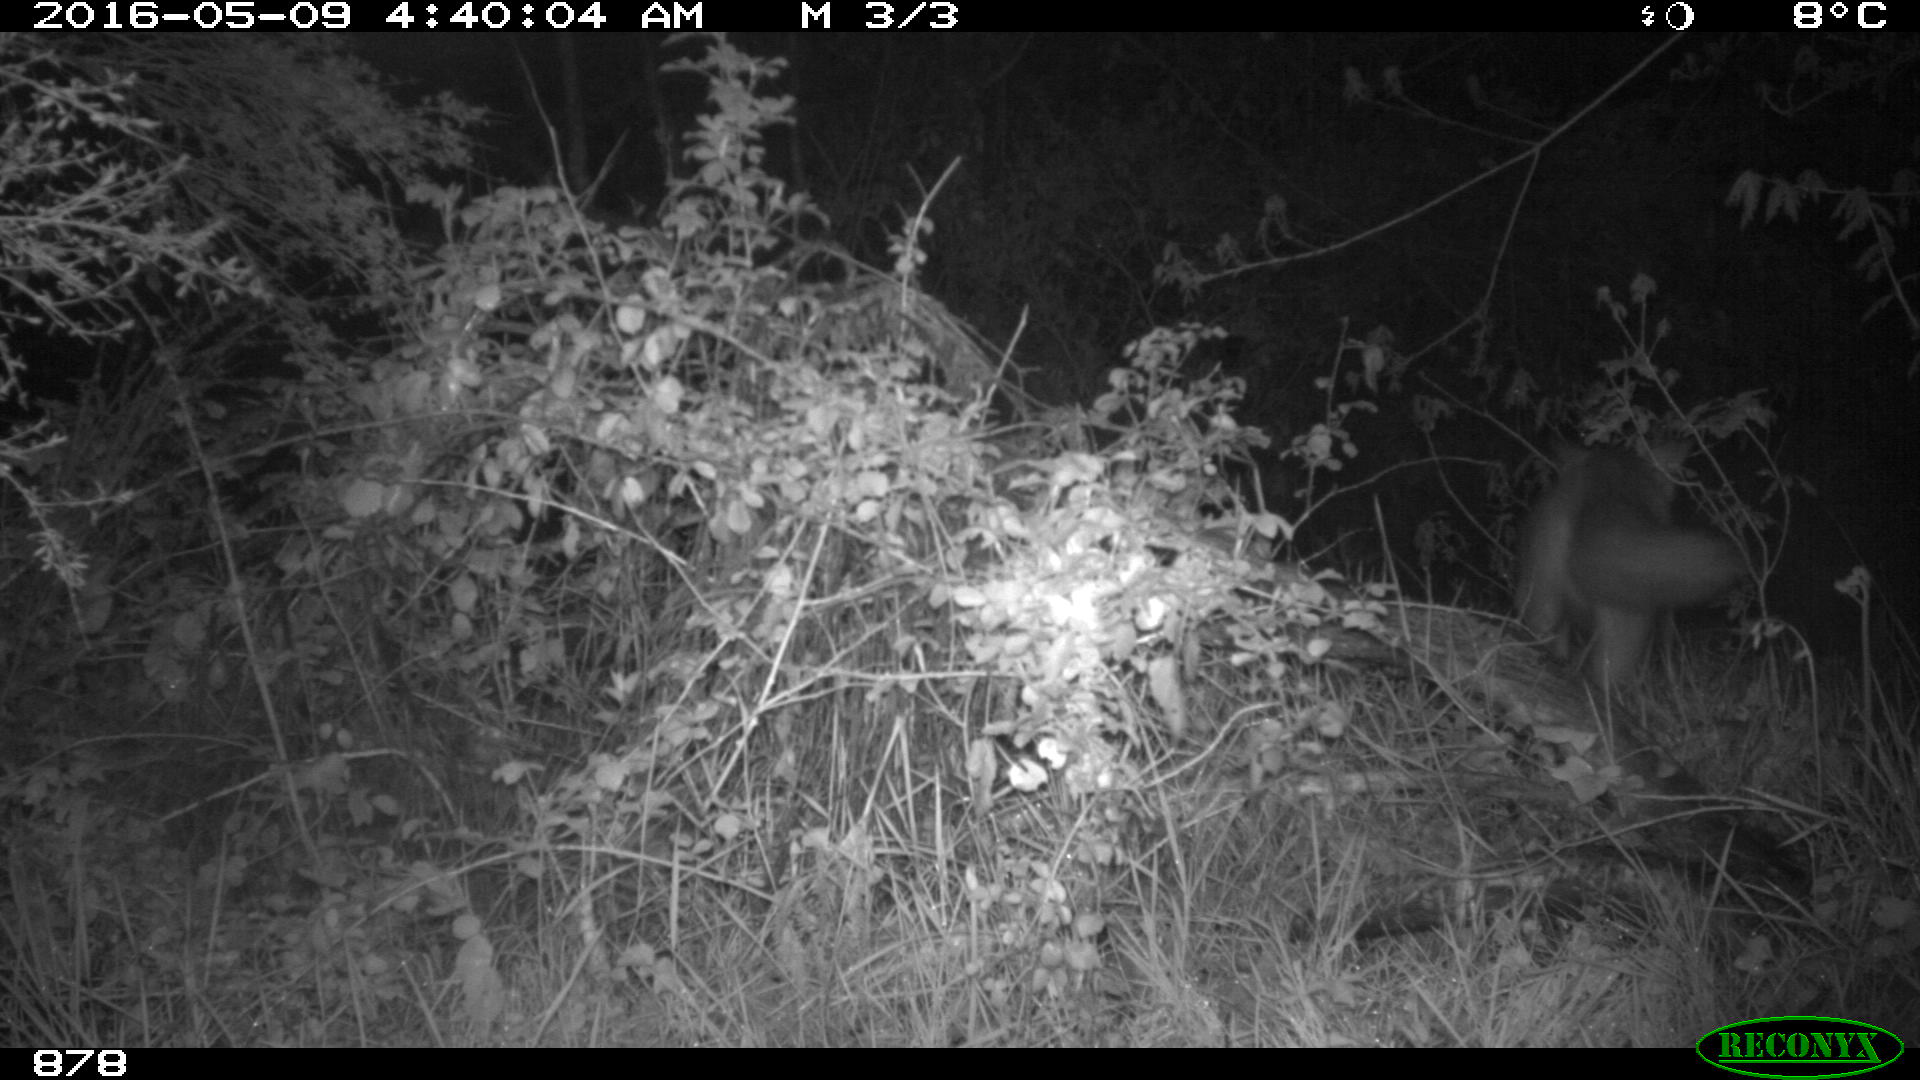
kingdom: Animalia
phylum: Chordata
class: Mammalia
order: Carnivora
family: Canidae
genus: Vulpes
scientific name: Vulpes vulpes
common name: Red fox
